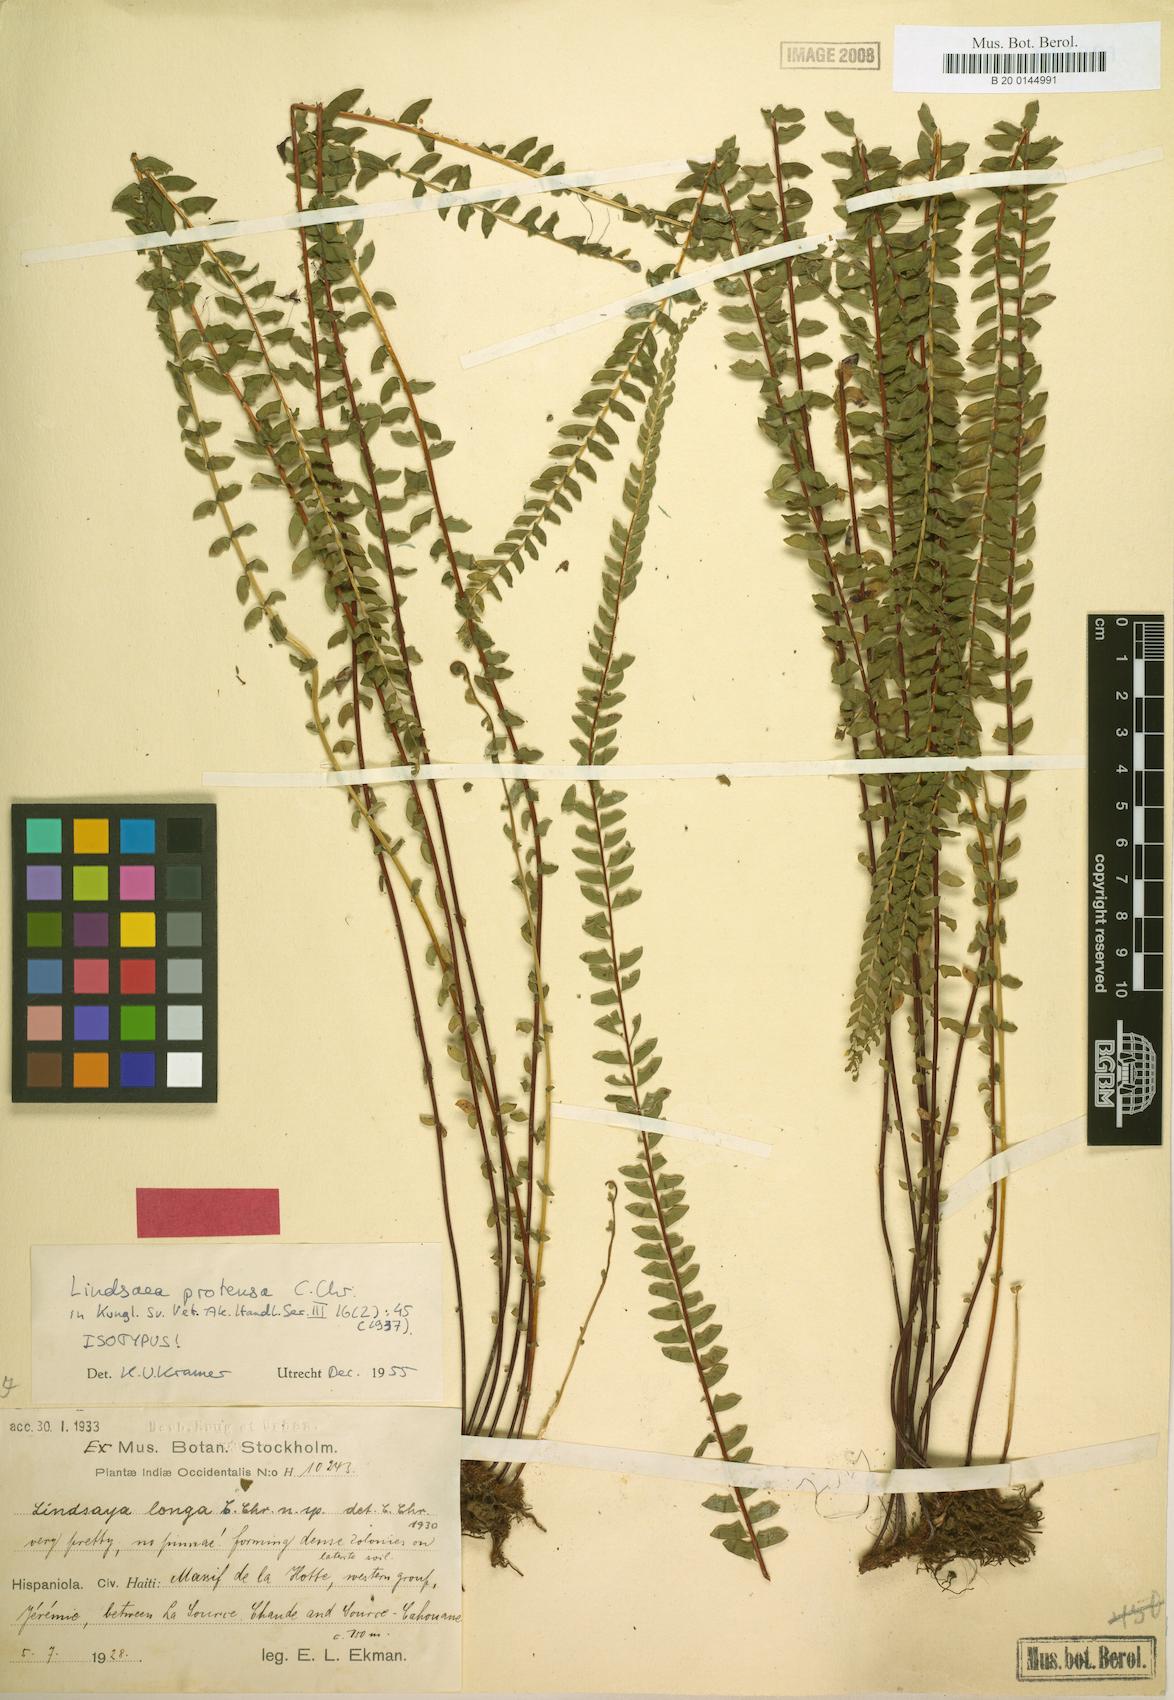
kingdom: Plantae
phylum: Tracheophyta
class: Polypodiopsida
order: Polypodiales
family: Lindsaeaceae
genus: Lindsaea
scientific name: Lindsaea protensa
